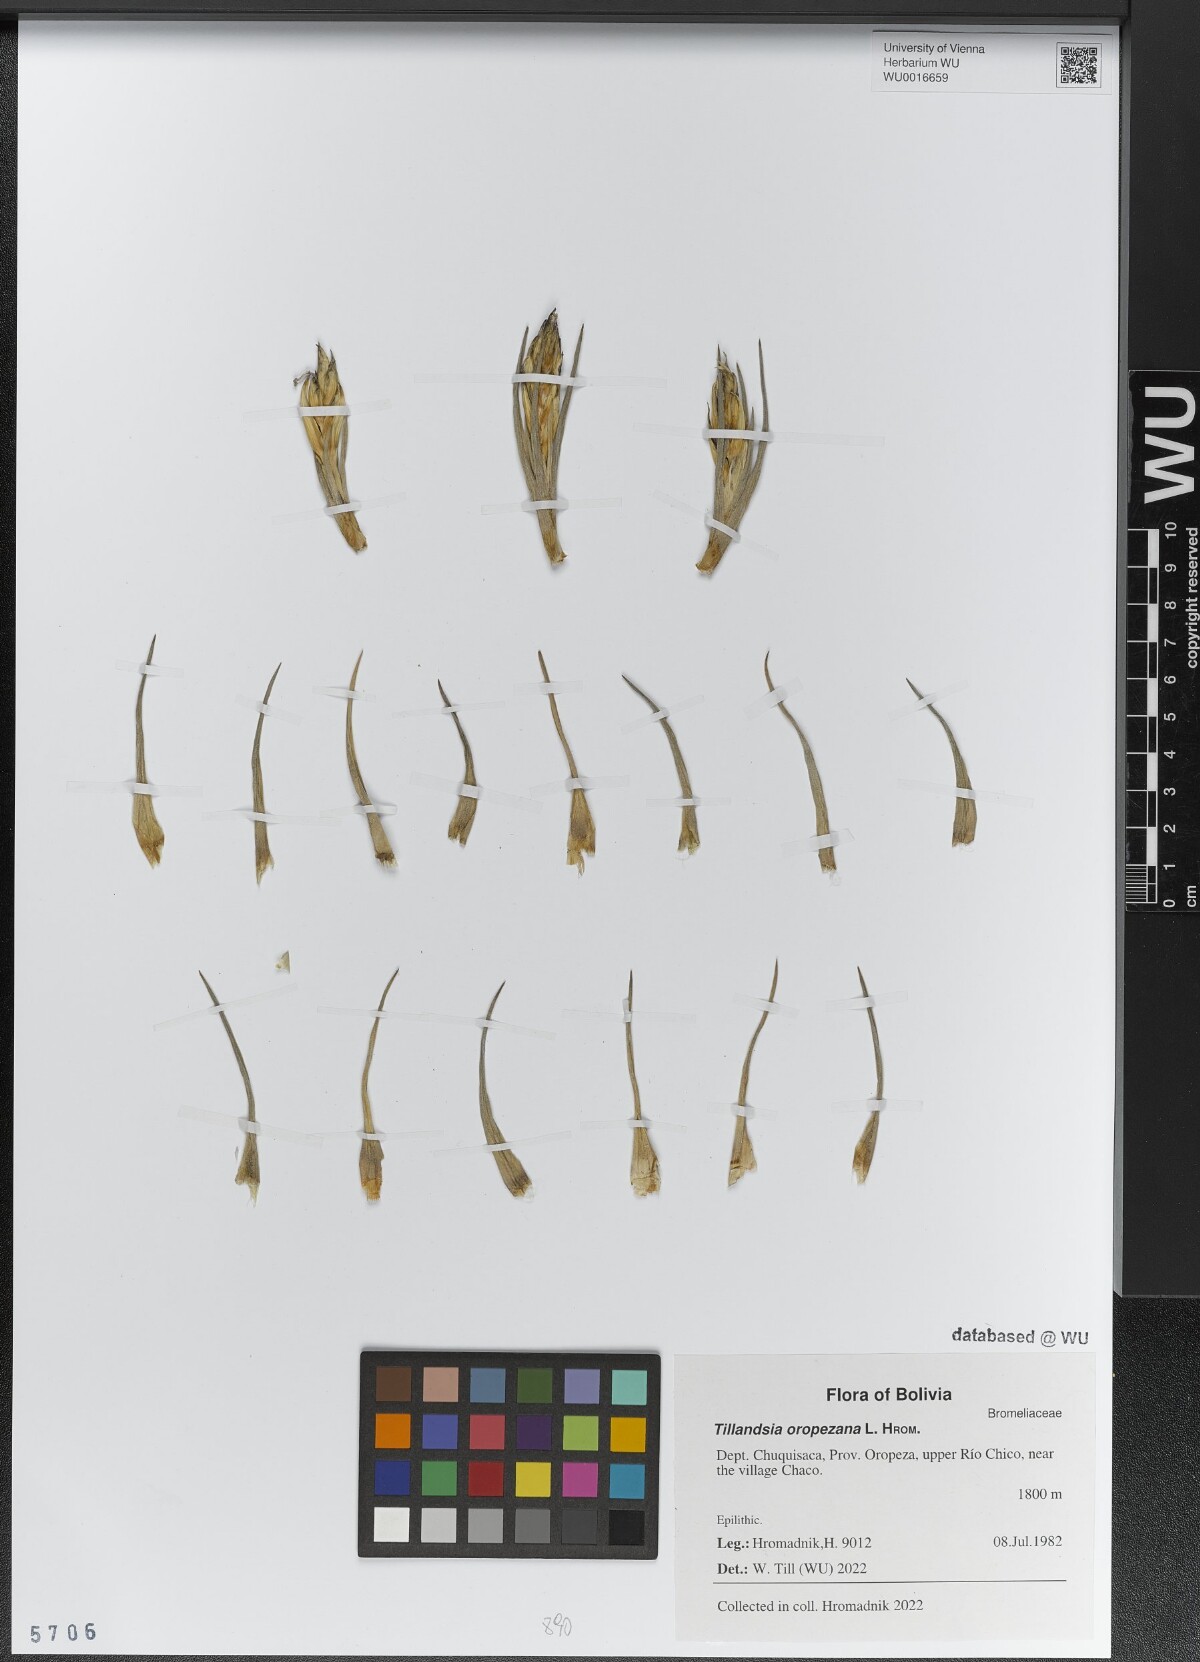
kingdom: Plantae
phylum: Tracheophyta
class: Liliopsida
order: Poales
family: Bromeliaceae
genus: Tillandsia
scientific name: Tillandsia oropezana
